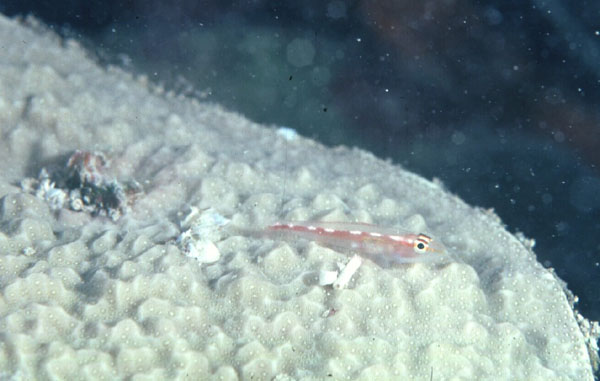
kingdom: Animalia
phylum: Chordata
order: Perciformes
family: Gobiidae
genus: Pleurosicya
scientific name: Pleurosicya micheli
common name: Cling goby
